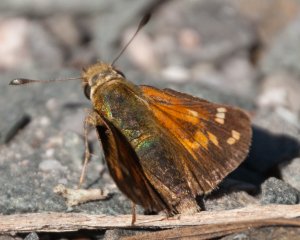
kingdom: Animalia
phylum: Arthropoda
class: Insecta
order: Lepidoptera
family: Hesperiidae
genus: Hesperia
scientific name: Hesperia comma
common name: Common Branded Skipper
